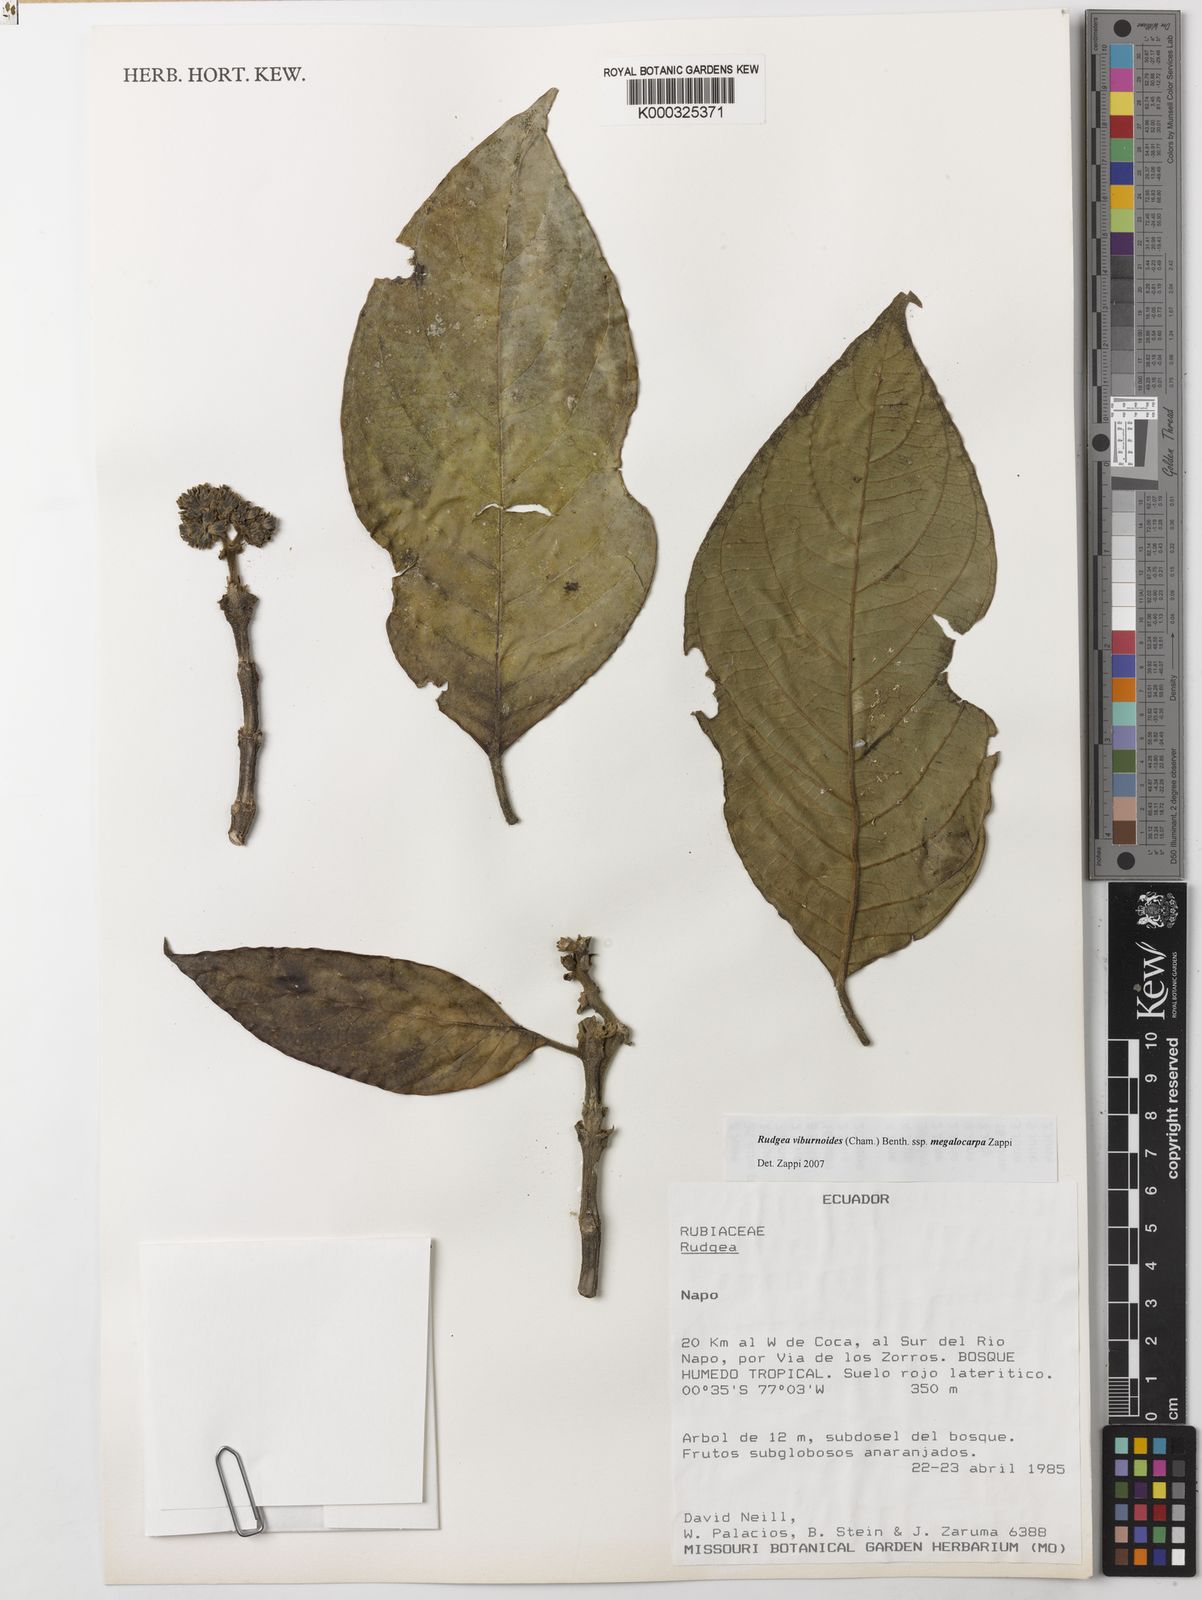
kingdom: Plantae
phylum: Tracheophyta
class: Magnoliopsida
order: Gentianales
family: Rubiaceae
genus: Rudgea
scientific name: Rudgea viburnoides
